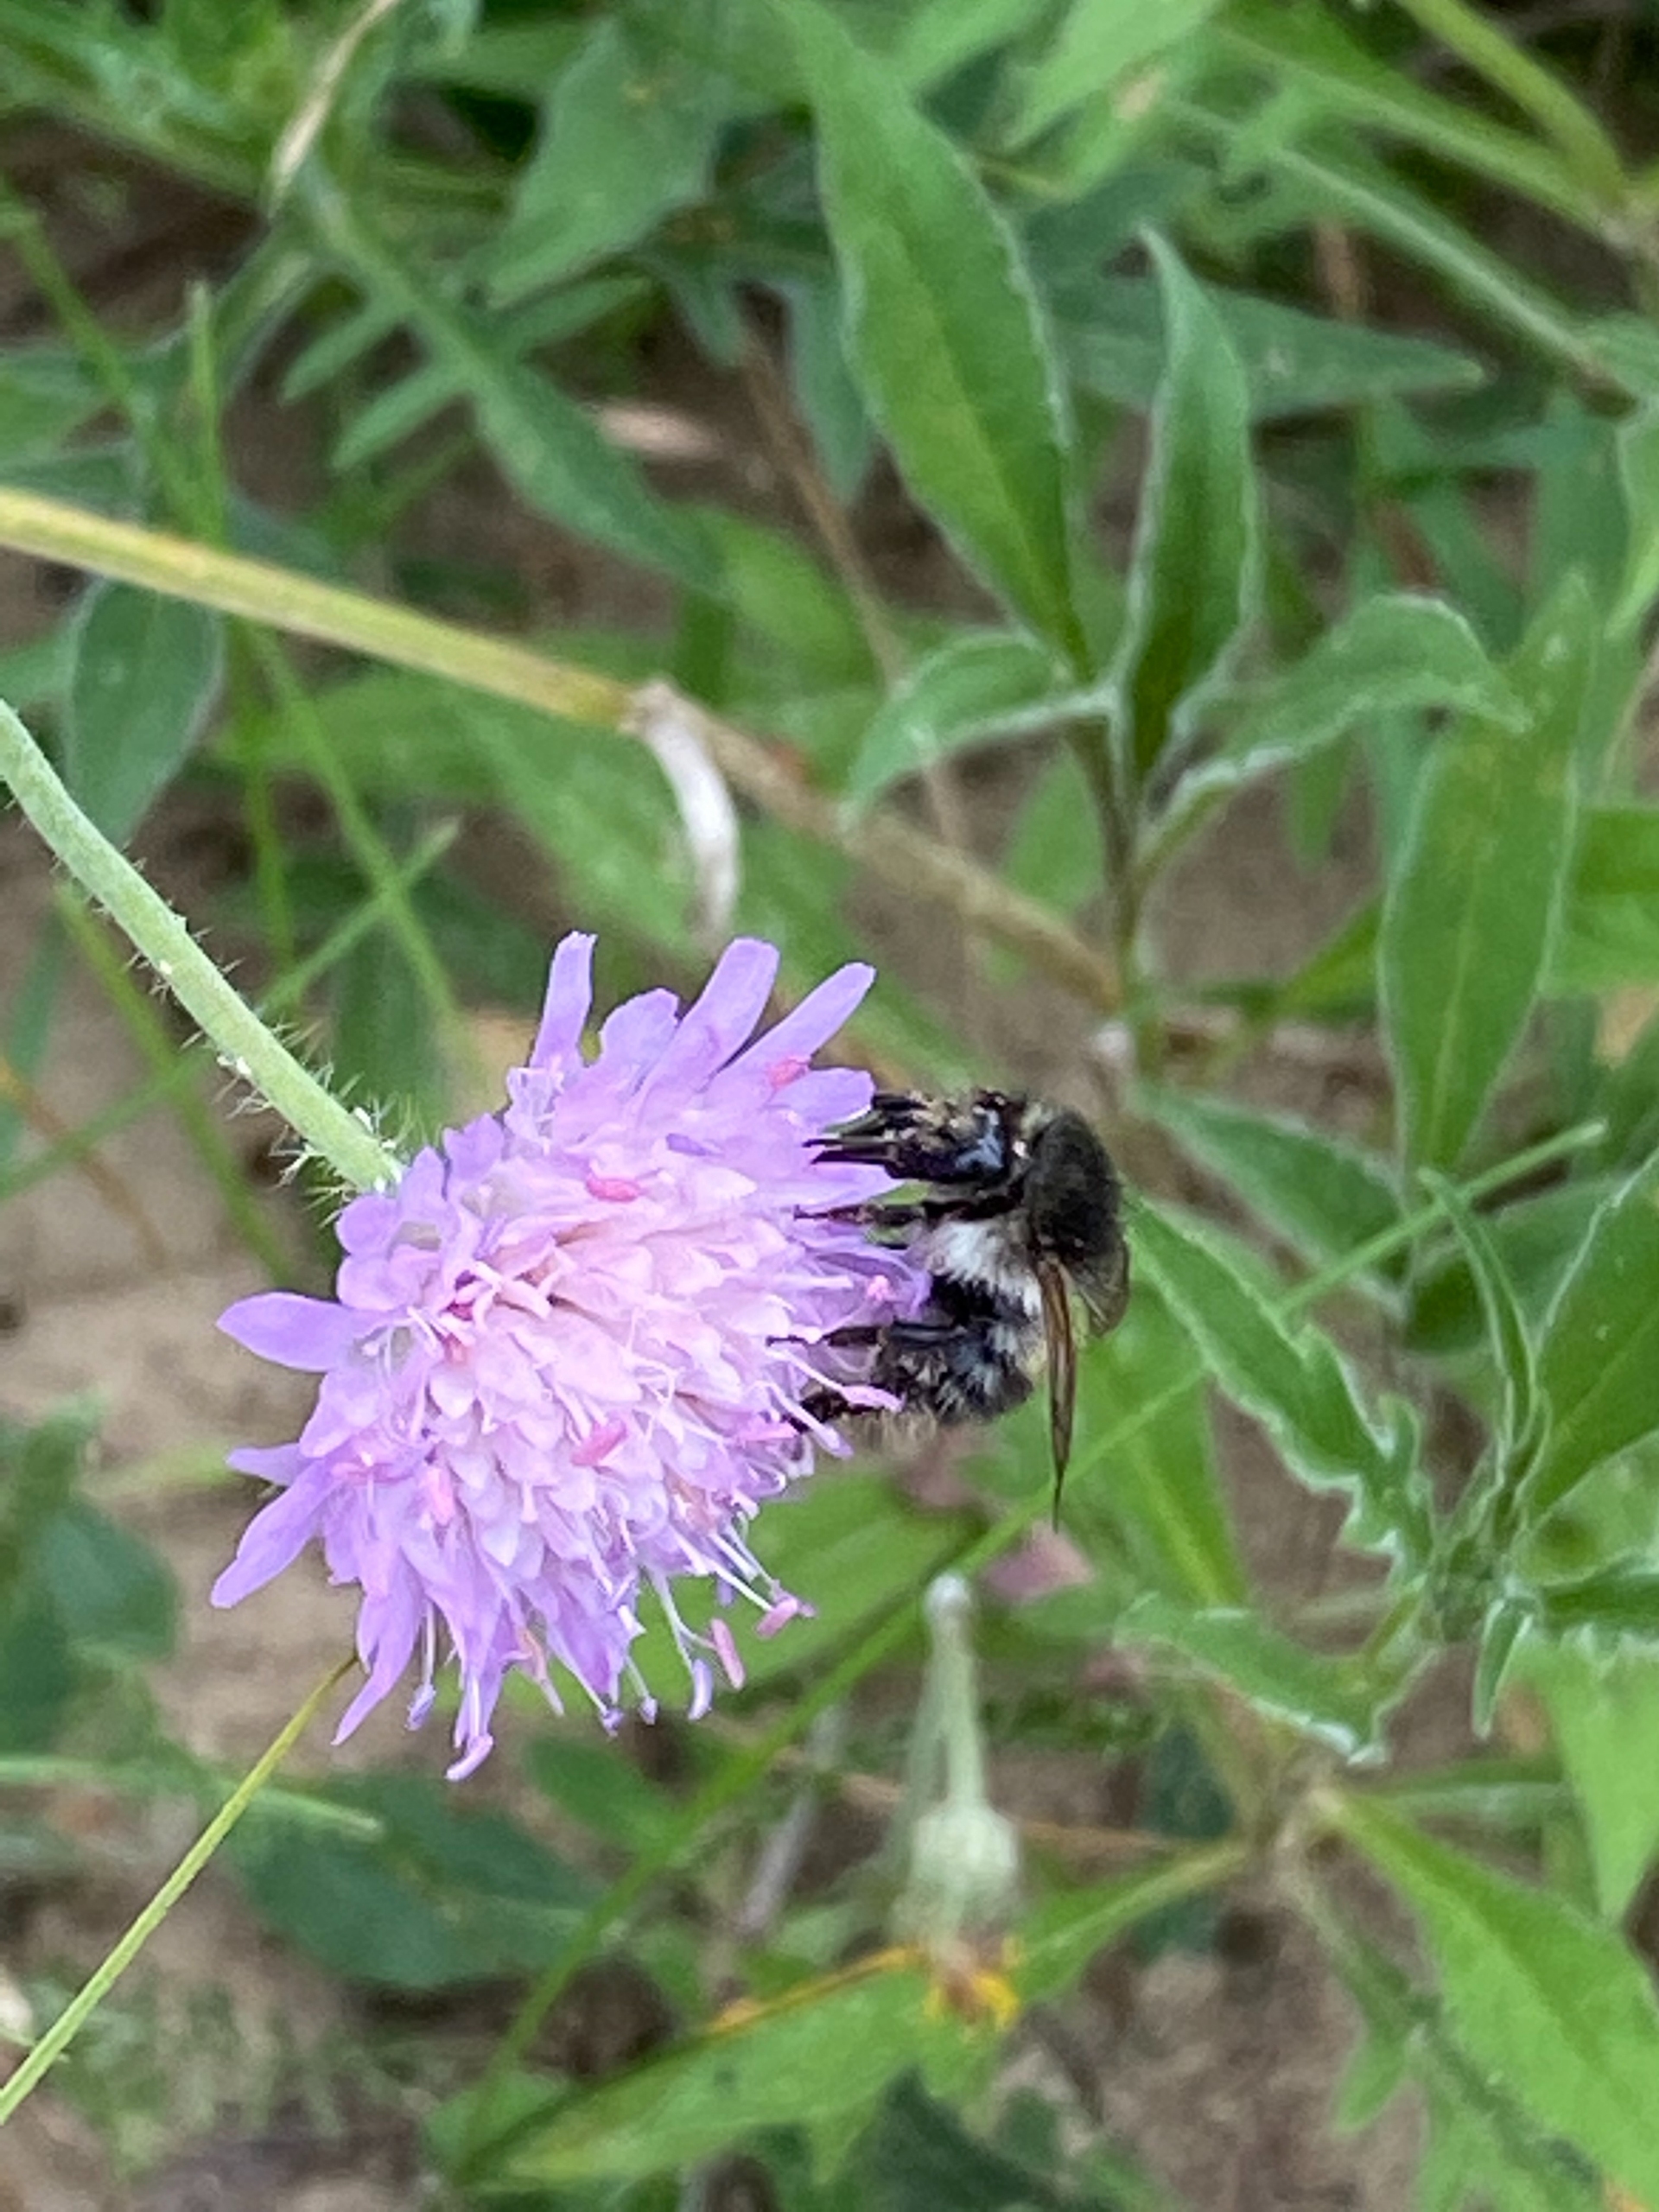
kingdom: Animalia
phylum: Arthropoda
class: Insecta
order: Hymenoptera
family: Apidae
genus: Bombus
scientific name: Bombus pascuorum
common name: Agerhumle
